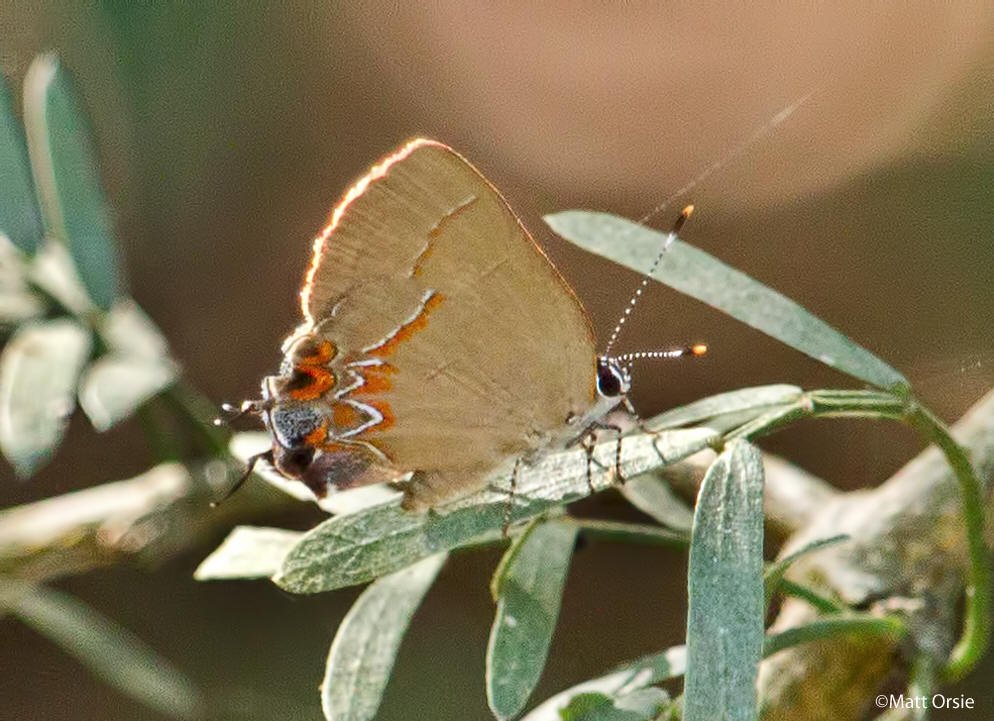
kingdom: Animalia
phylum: Arthropoda
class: Insecta
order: Lepidoptera
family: Lycaenidae
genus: Calycopis
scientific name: Calycopis isobeon
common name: Dusky-blue Groundstreak
